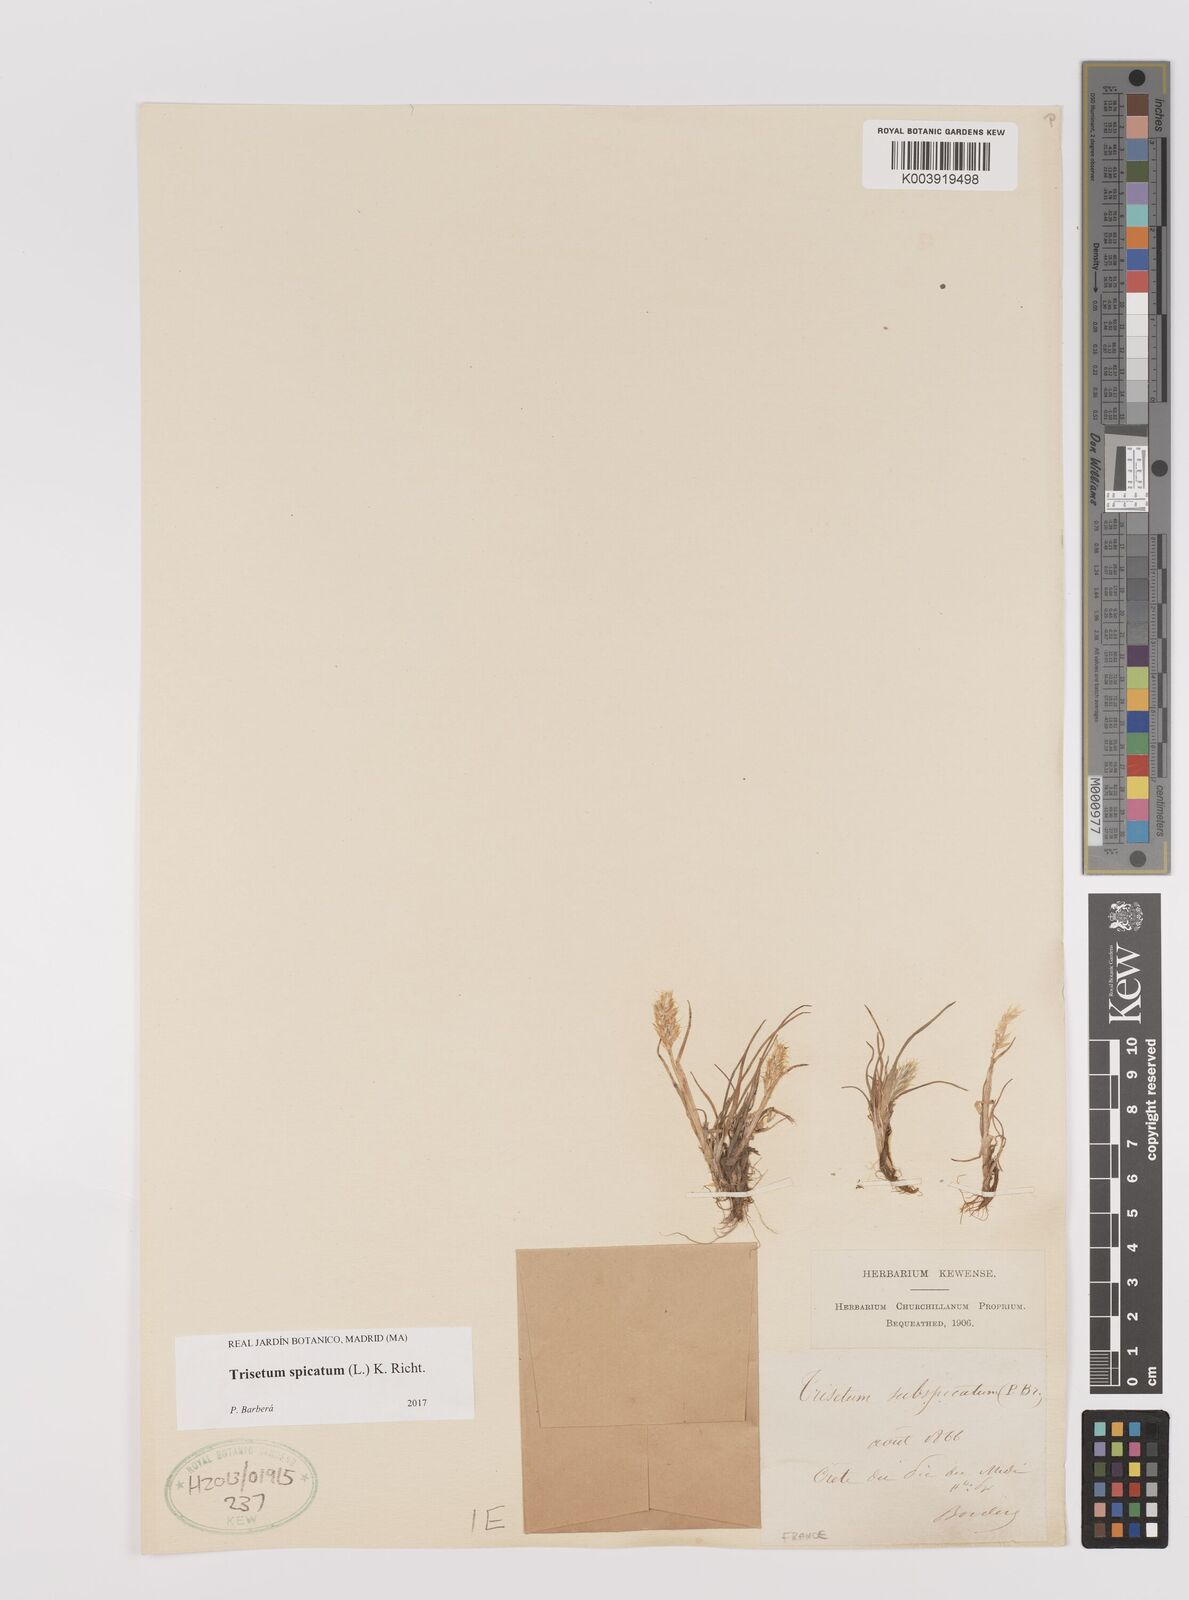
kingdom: Plantae
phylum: Tracheophyta
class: Liliopsida
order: Poales
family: Poaceae
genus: Koeleria
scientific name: Koeleria spicata
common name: Mountain trisetum
